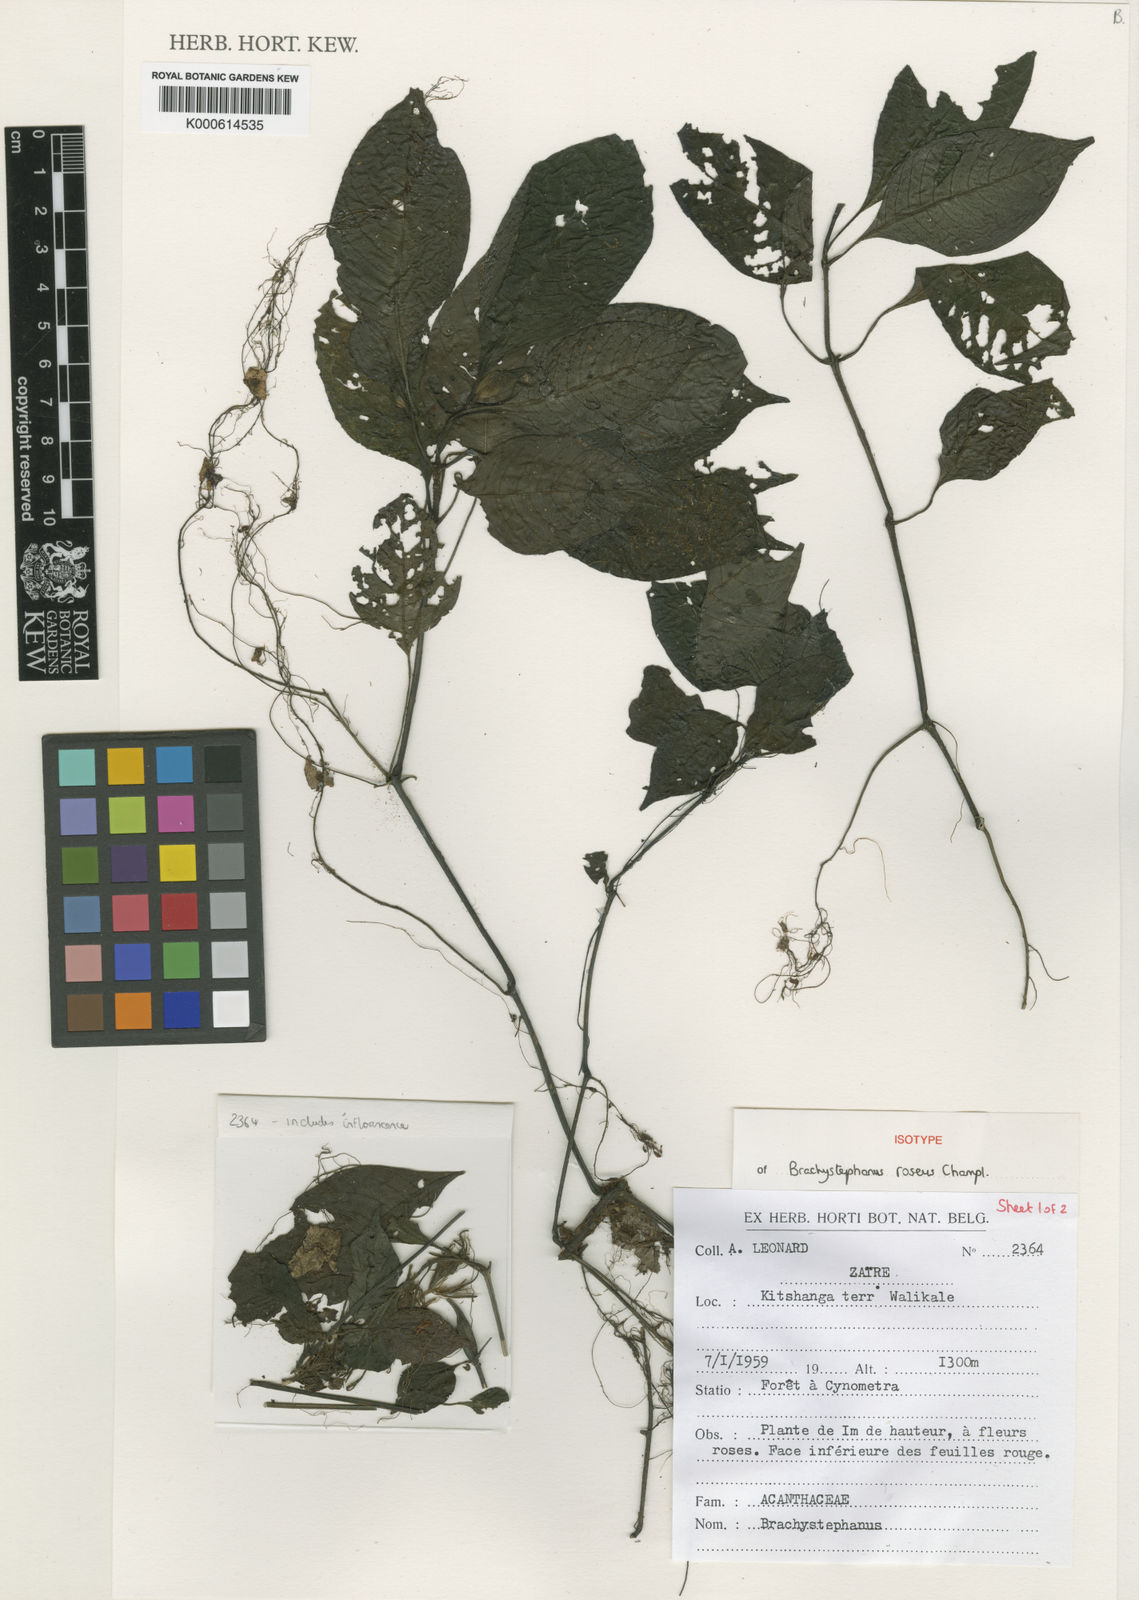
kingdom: Plantae
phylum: Tracheophyta
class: Magnoliopsida
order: Lamiales
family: Acanthaceae
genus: Brachystephanus
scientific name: Brachystephanus roseus
